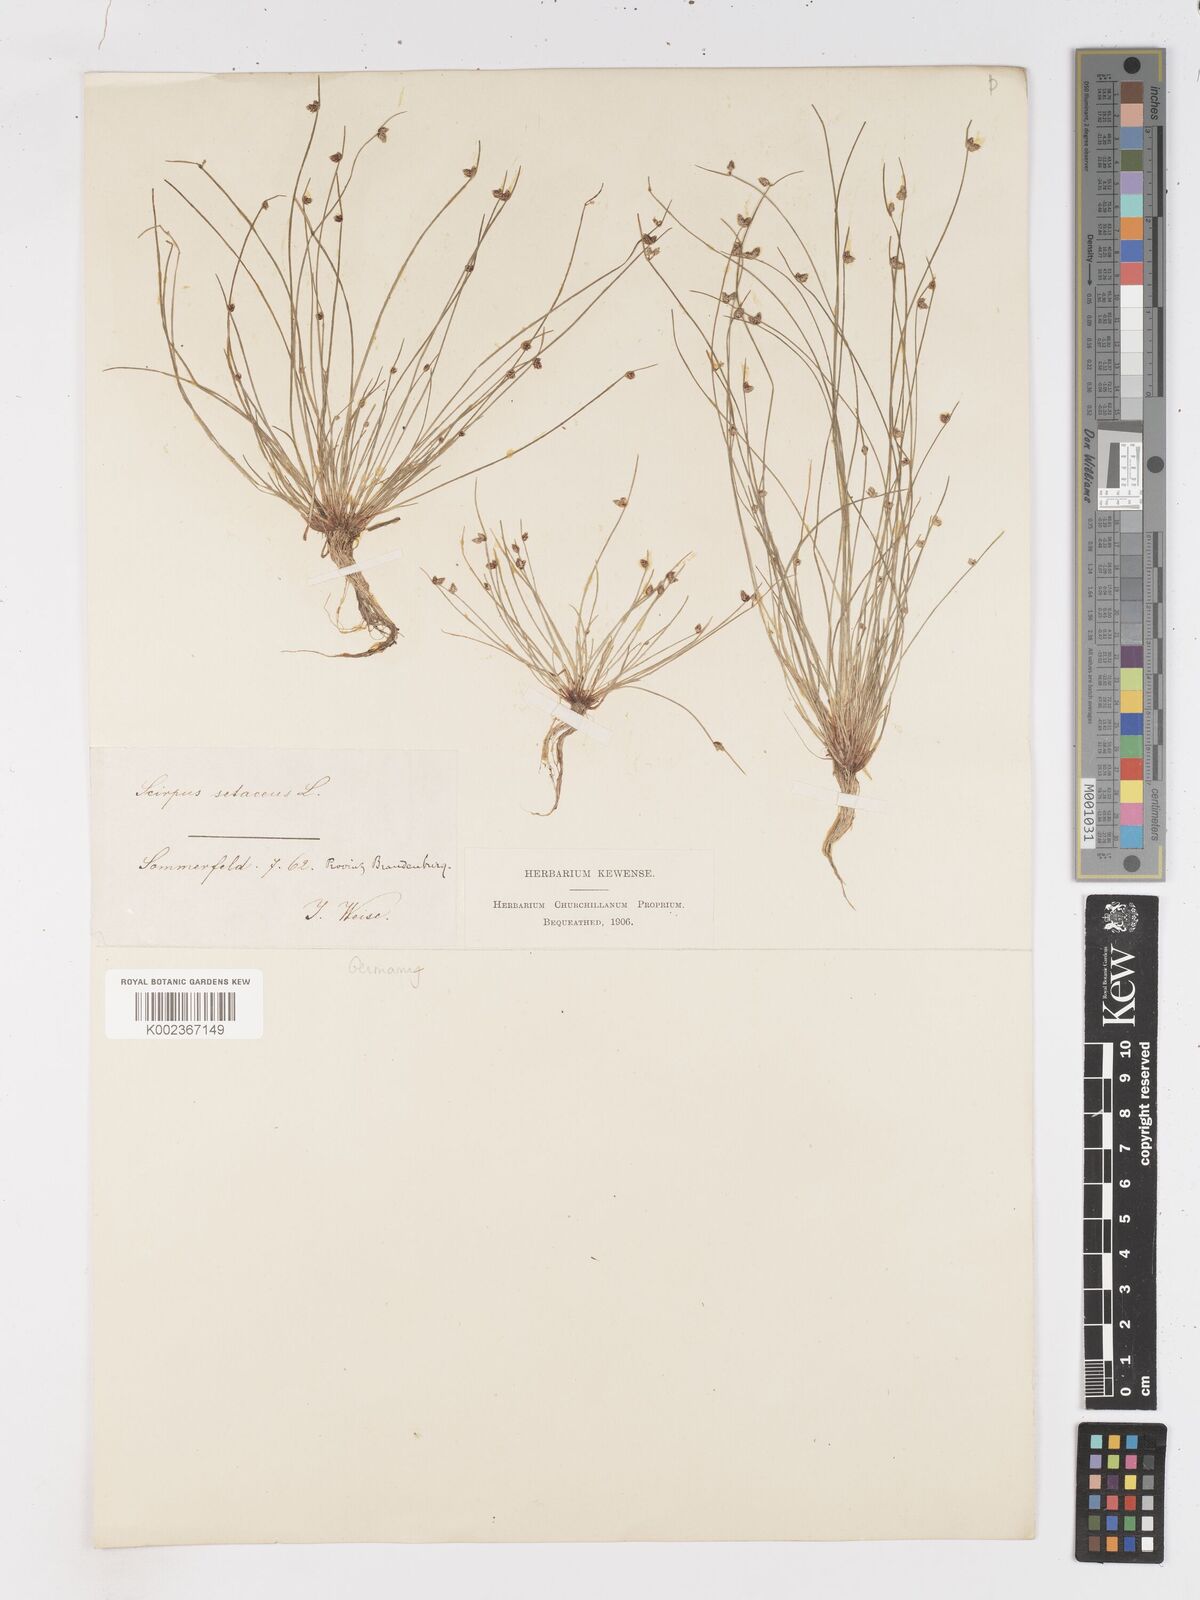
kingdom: Plantae
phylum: Tracheophyta
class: Liliopsida
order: Poales
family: Cyperaceae
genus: Isolepis
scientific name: Isolepis setacea
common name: Bristle club-rush
